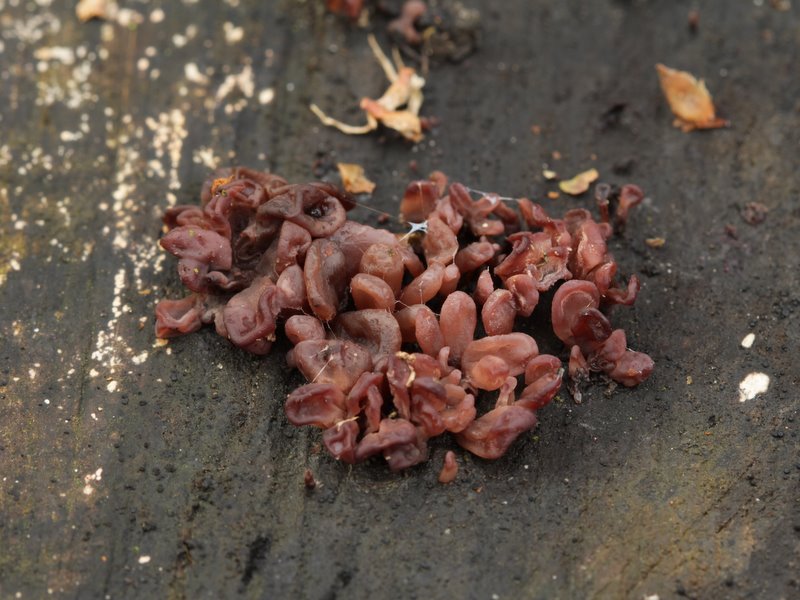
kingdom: Fungi
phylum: Ascomycota
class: Leotiomycetes
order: Helotiales
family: Gelatinodiscaceae
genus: Ascocoryne
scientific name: Ascocoryne sarcoides
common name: rødlilla sejskive
